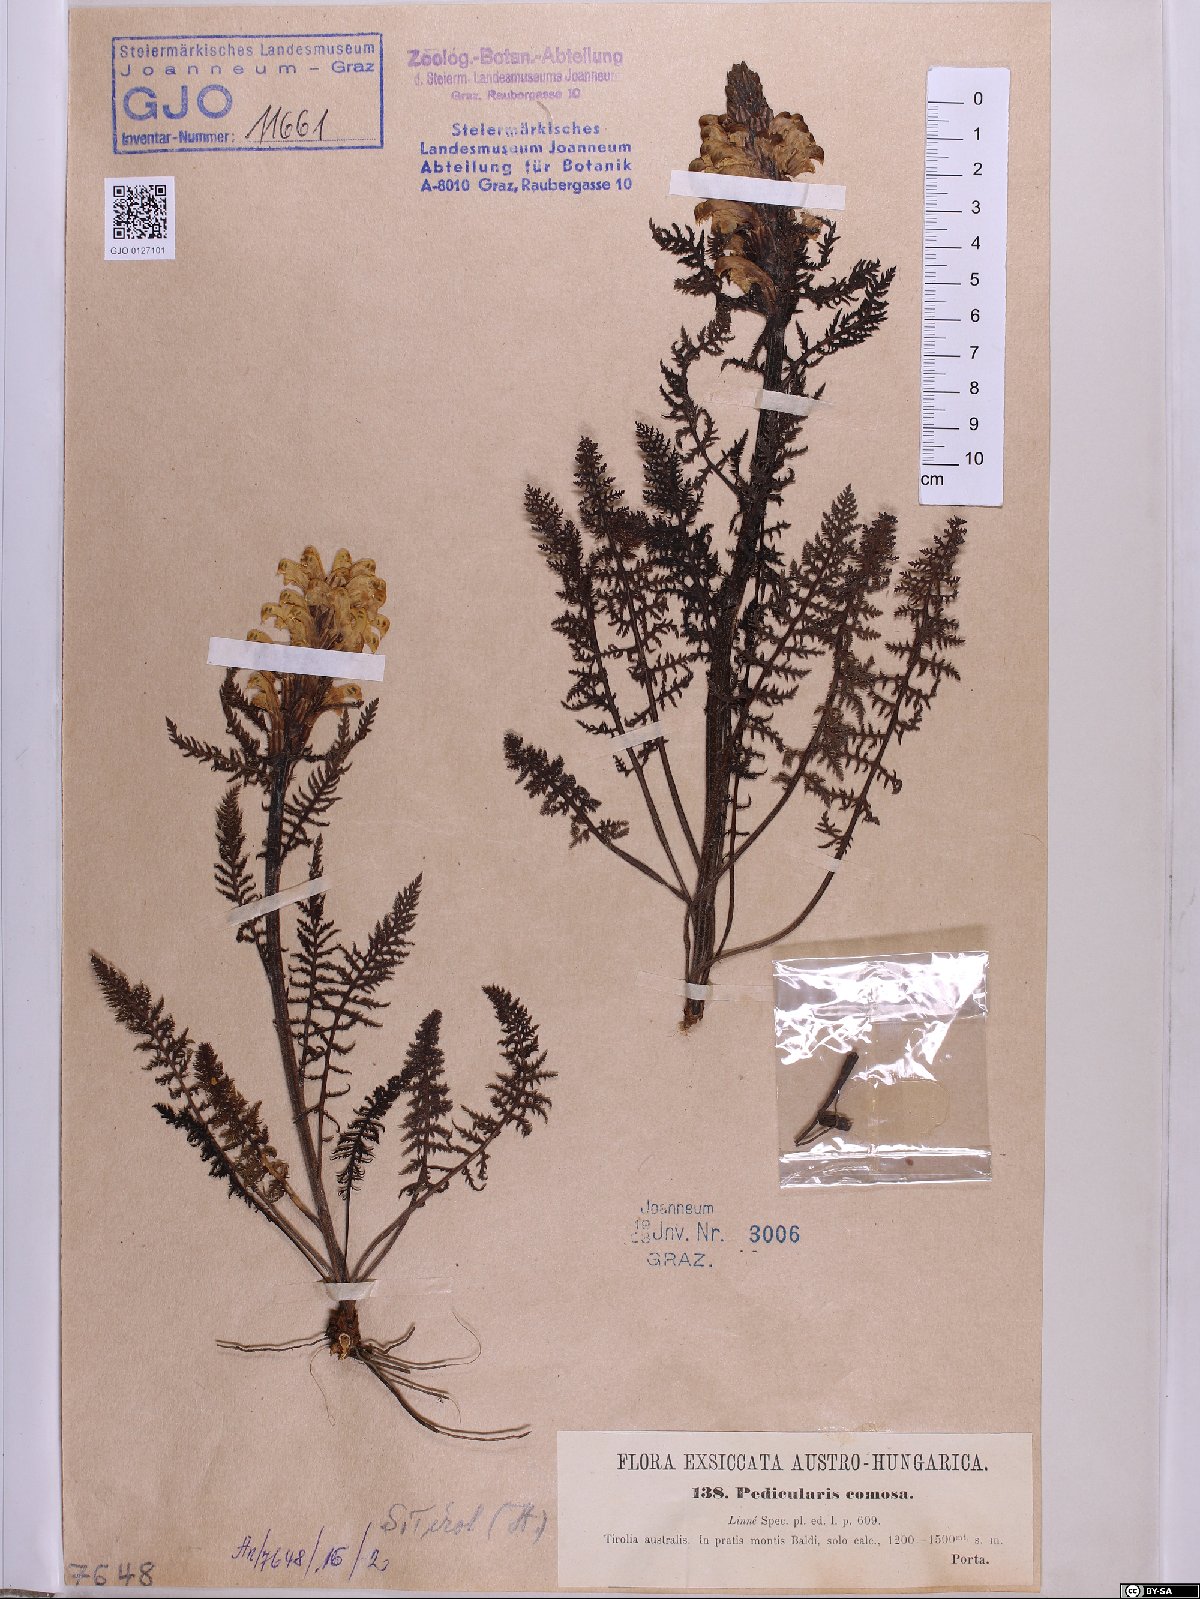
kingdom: Plantae
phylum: Tracheophyta
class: Magnoliopsida
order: Lamiales
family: Orobanchaceae
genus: Pedicularis
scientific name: Pedicularis comosa
